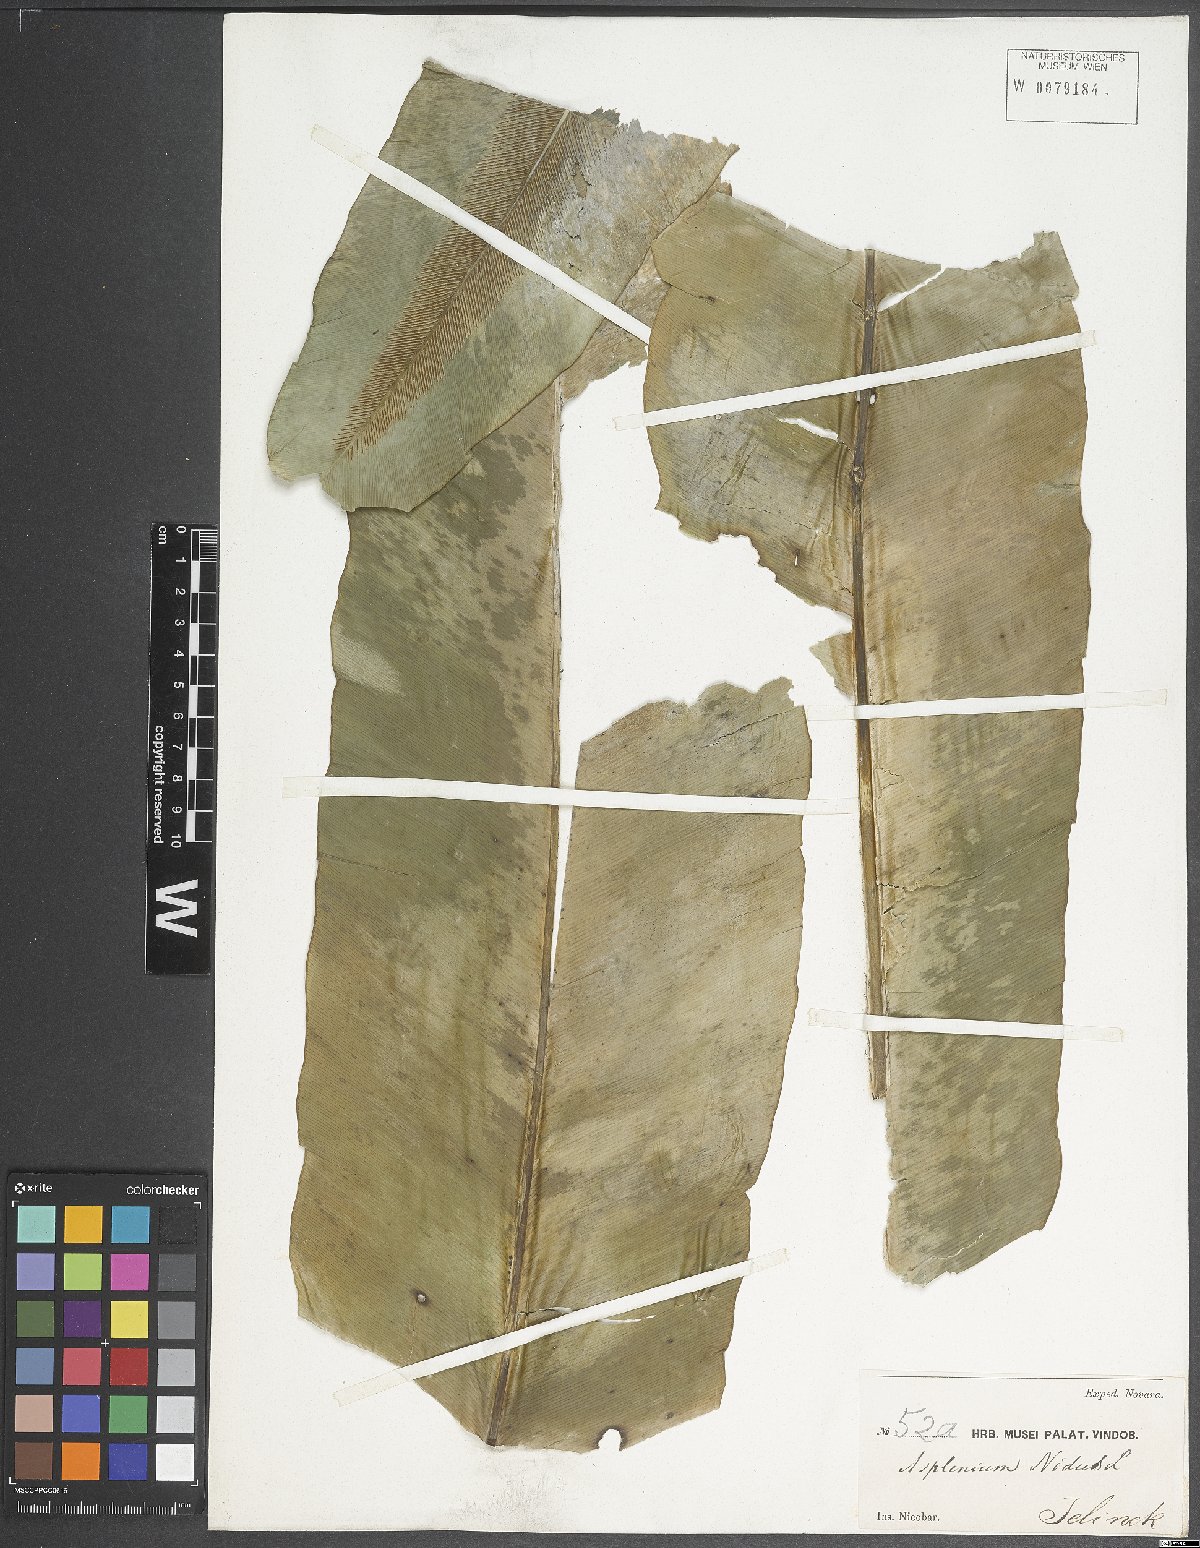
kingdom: Plantae
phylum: Tracheophyta
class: Polypodiopsida
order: Polypodiales
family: Aspleniaceae
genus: Asplenium
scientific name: Asplenium nidus
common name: Bird's-nest fern
